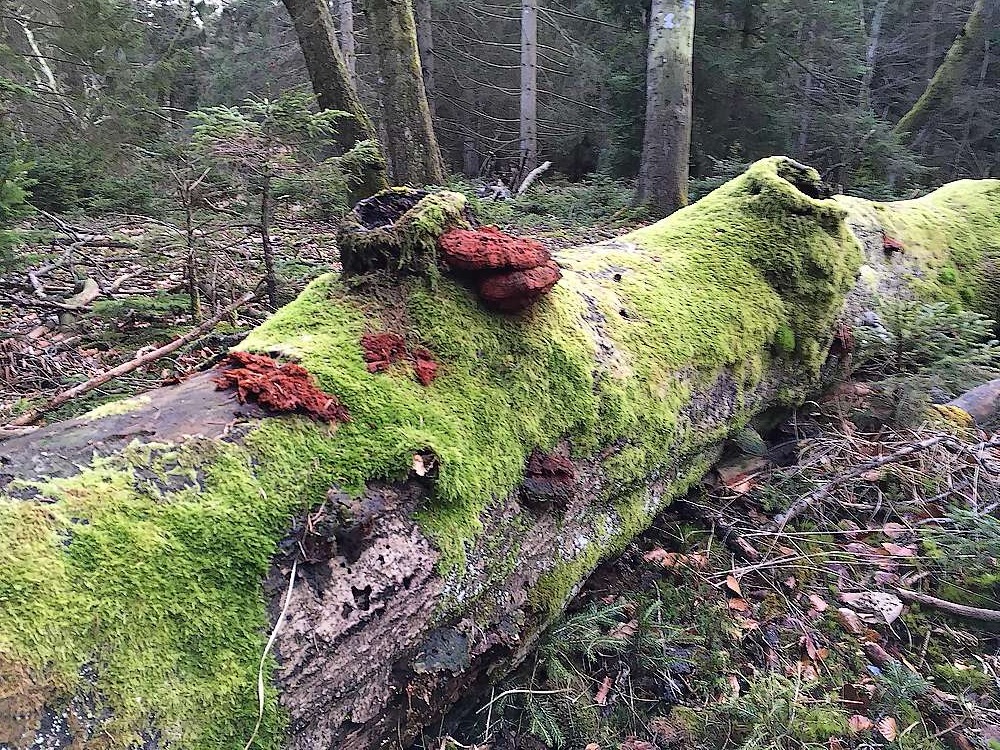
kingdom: Fungi
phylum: Basidiomycota
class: Agaricomycetes
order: Polyporales
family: Pycnoporellaceae
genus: Pycnoporellus
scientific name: Pycnoporellus fulgens
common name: flammeporesvamp
